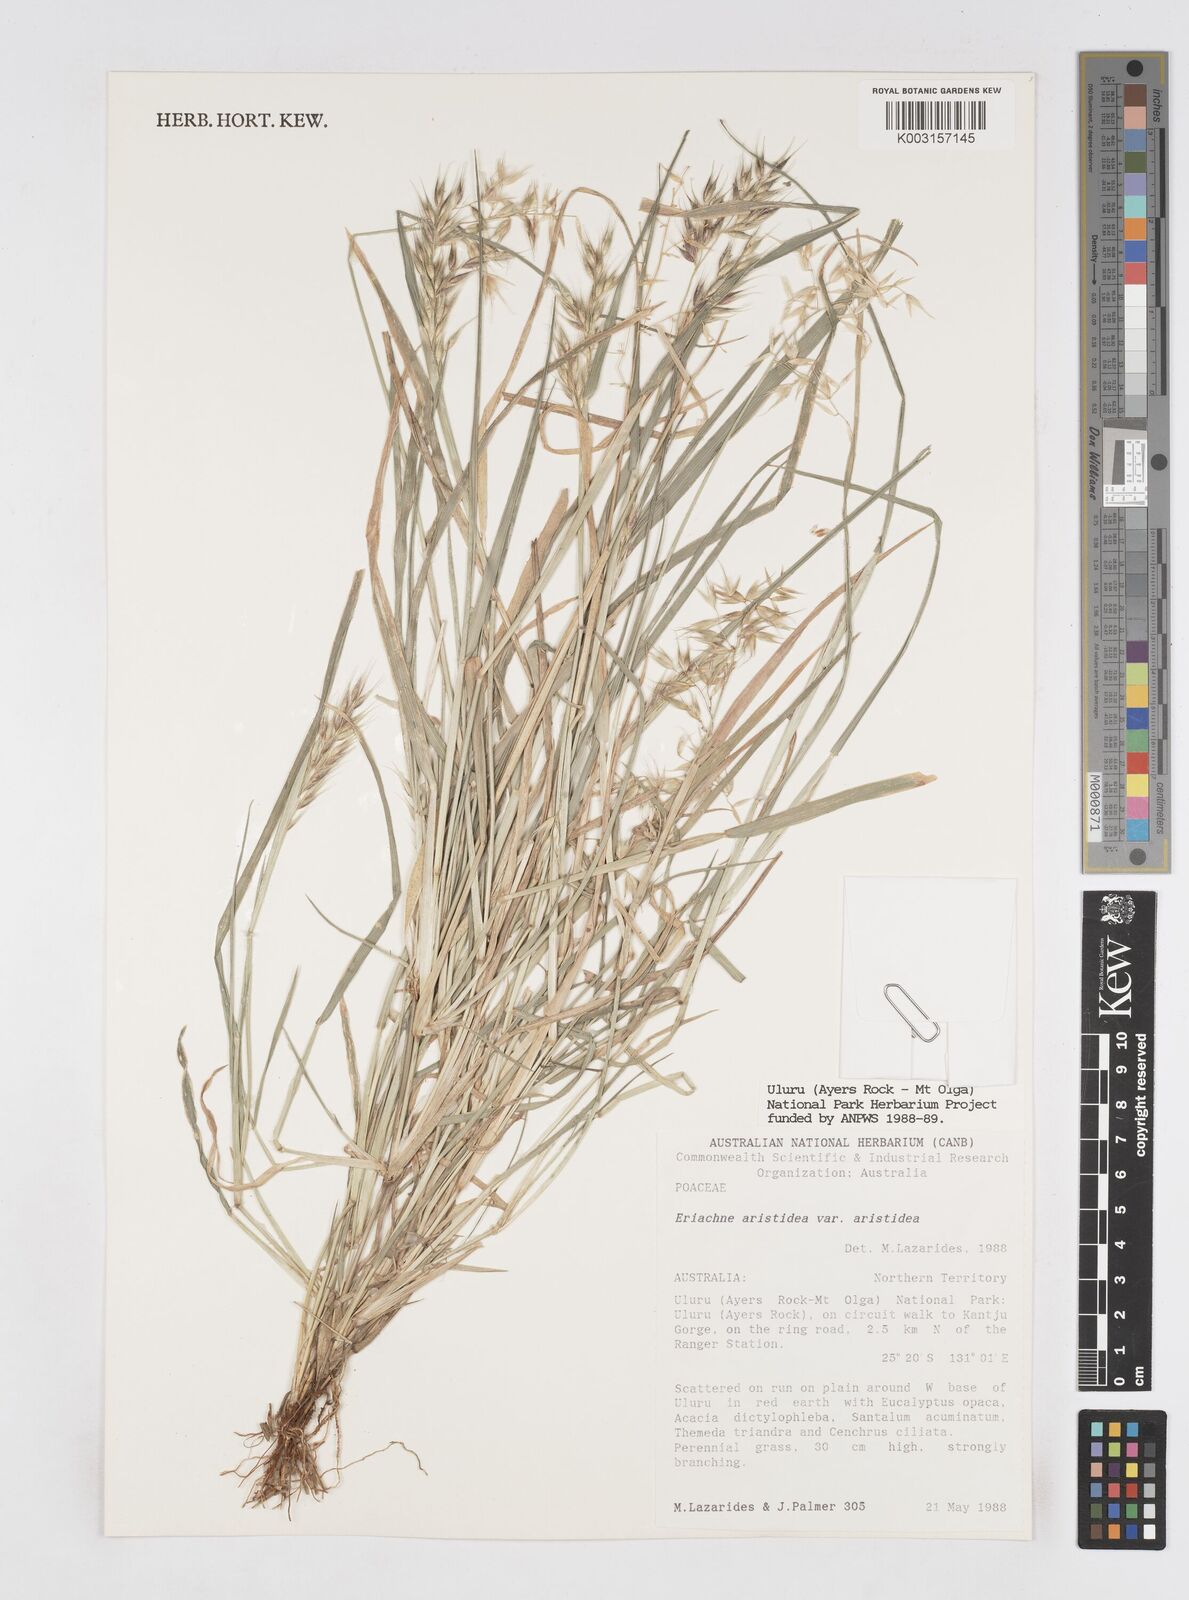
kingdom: Plantae
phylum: Tracheophyta
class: Liliopsida
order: Poales
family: Poaceae
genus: Eriachne
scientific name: Eriachne aristidea
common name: Three-awn wanderrie grass
